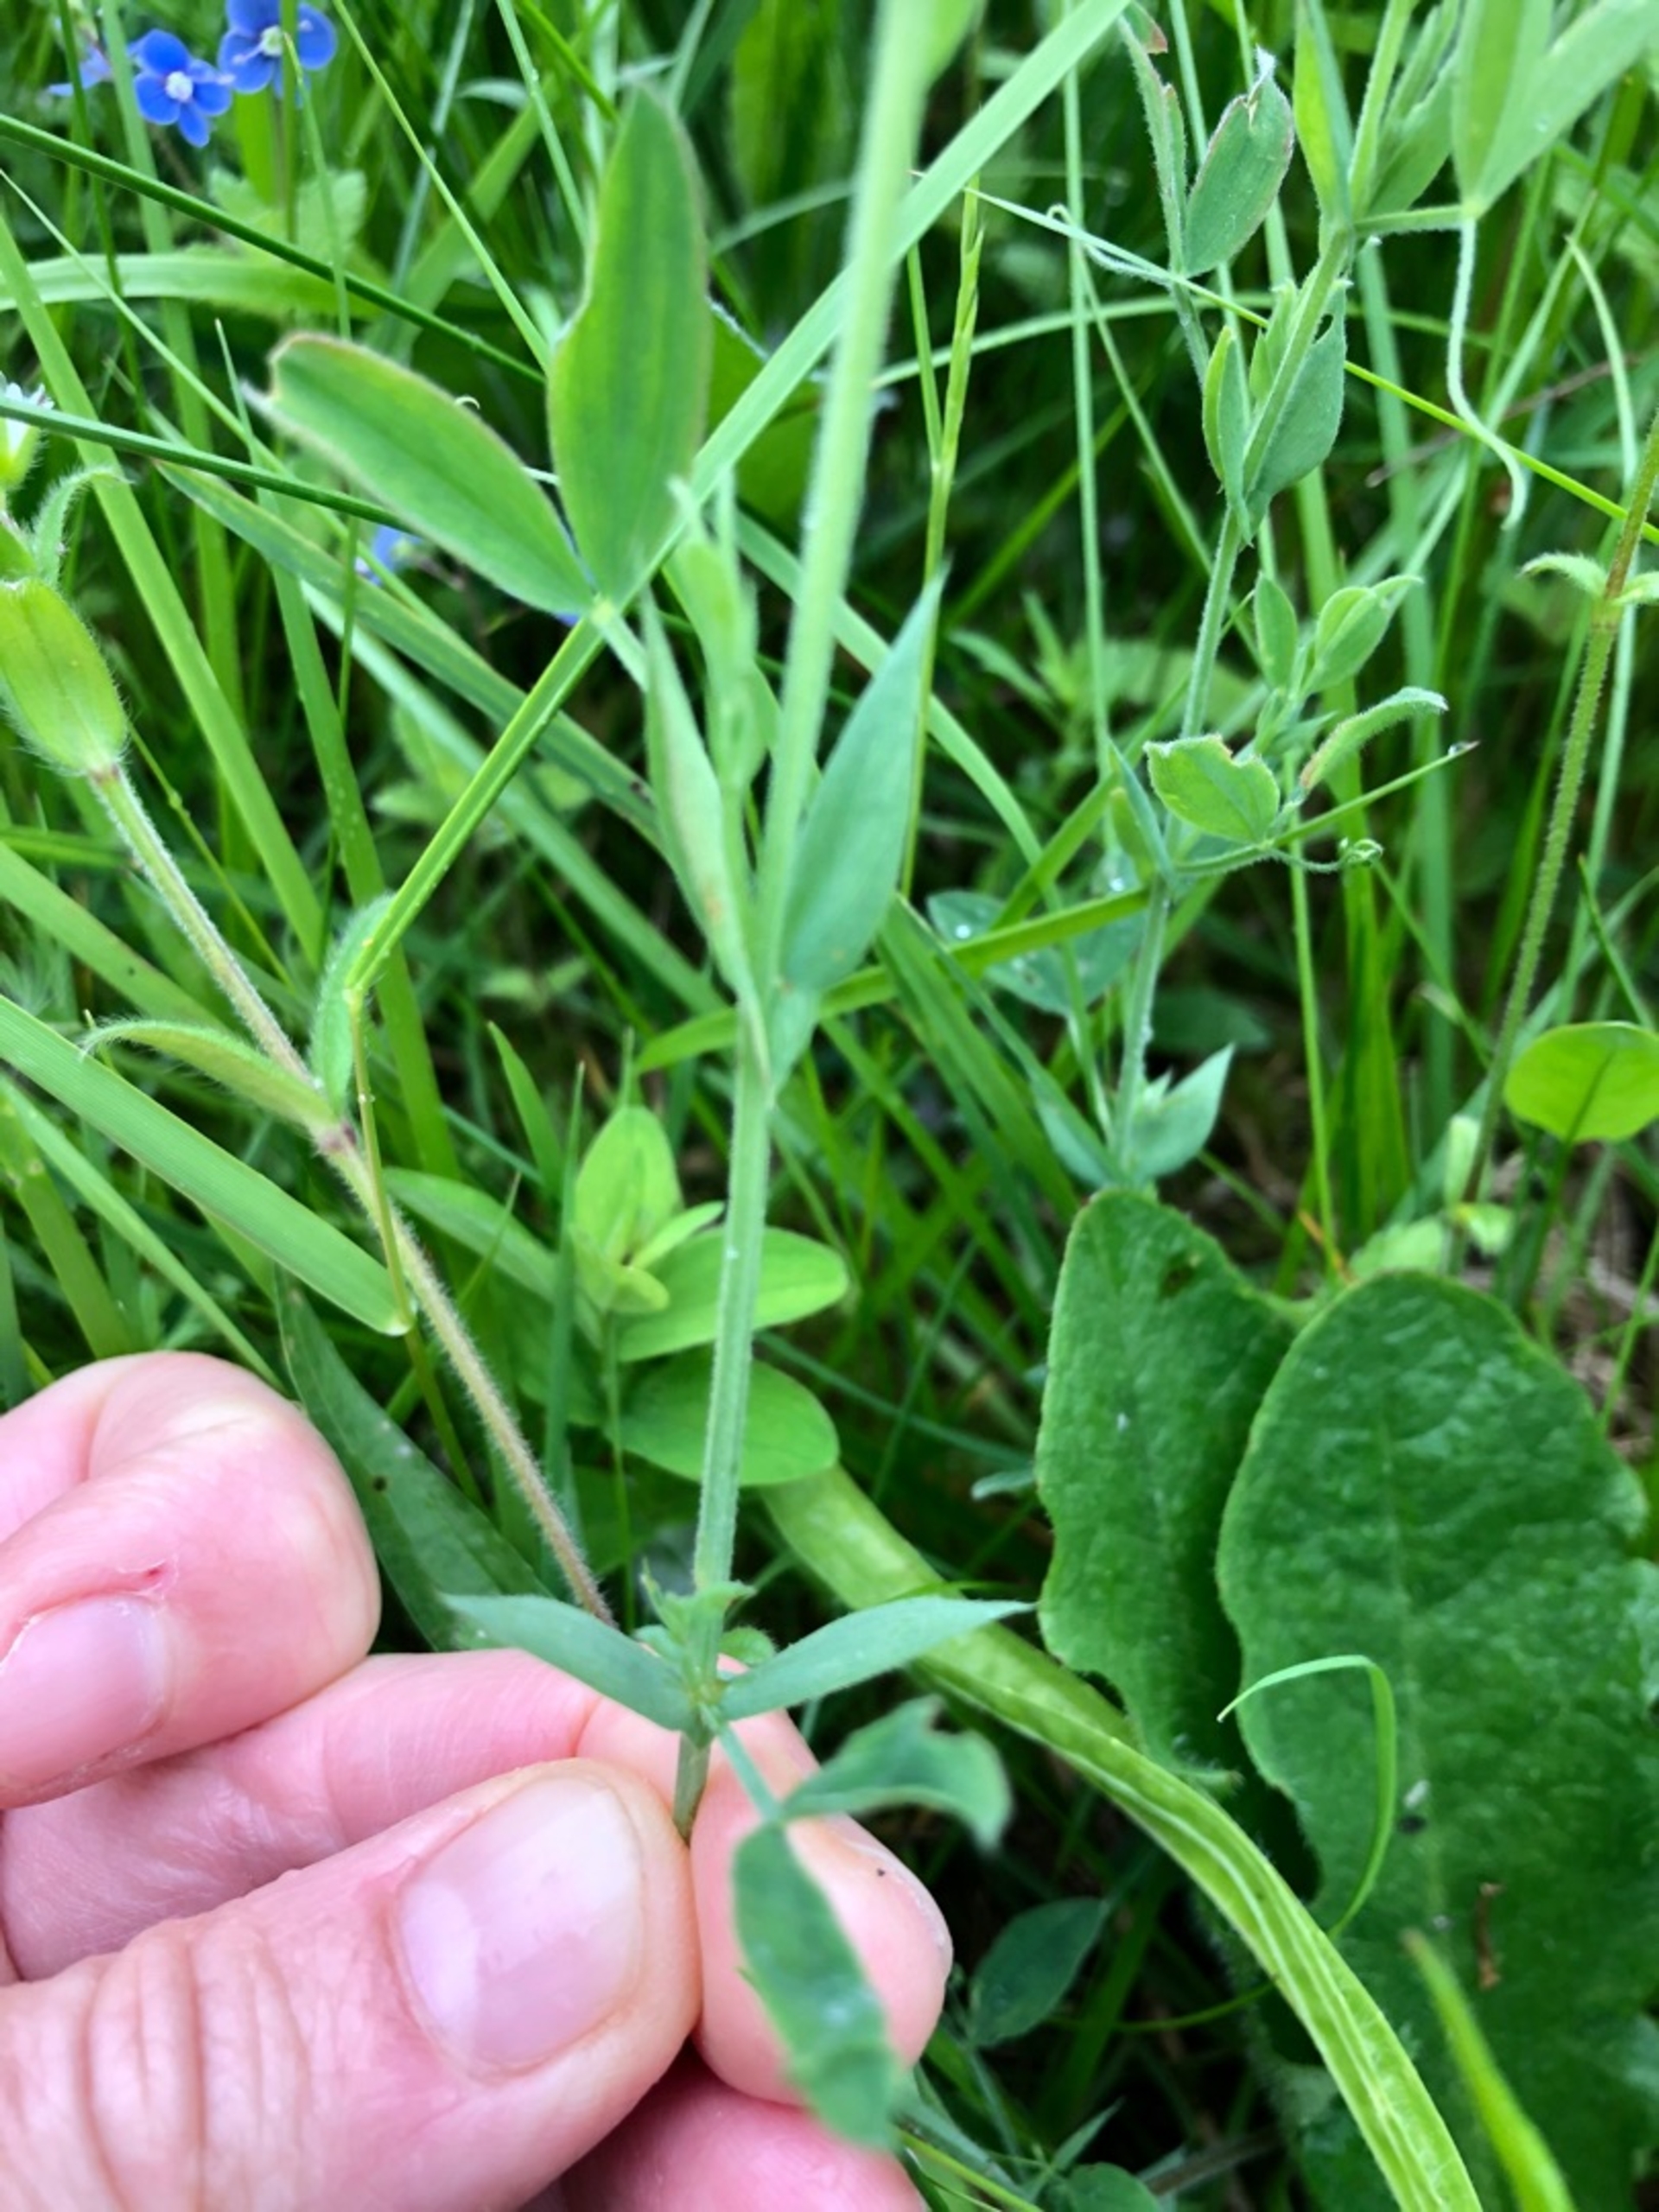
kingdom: Plantae
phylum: Tracheophyta
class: Magnoliopsida
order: Fabales
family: Fabaceae
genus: Lathyrus
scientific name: Lathyrus pratensis
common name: Gul fladbælg
